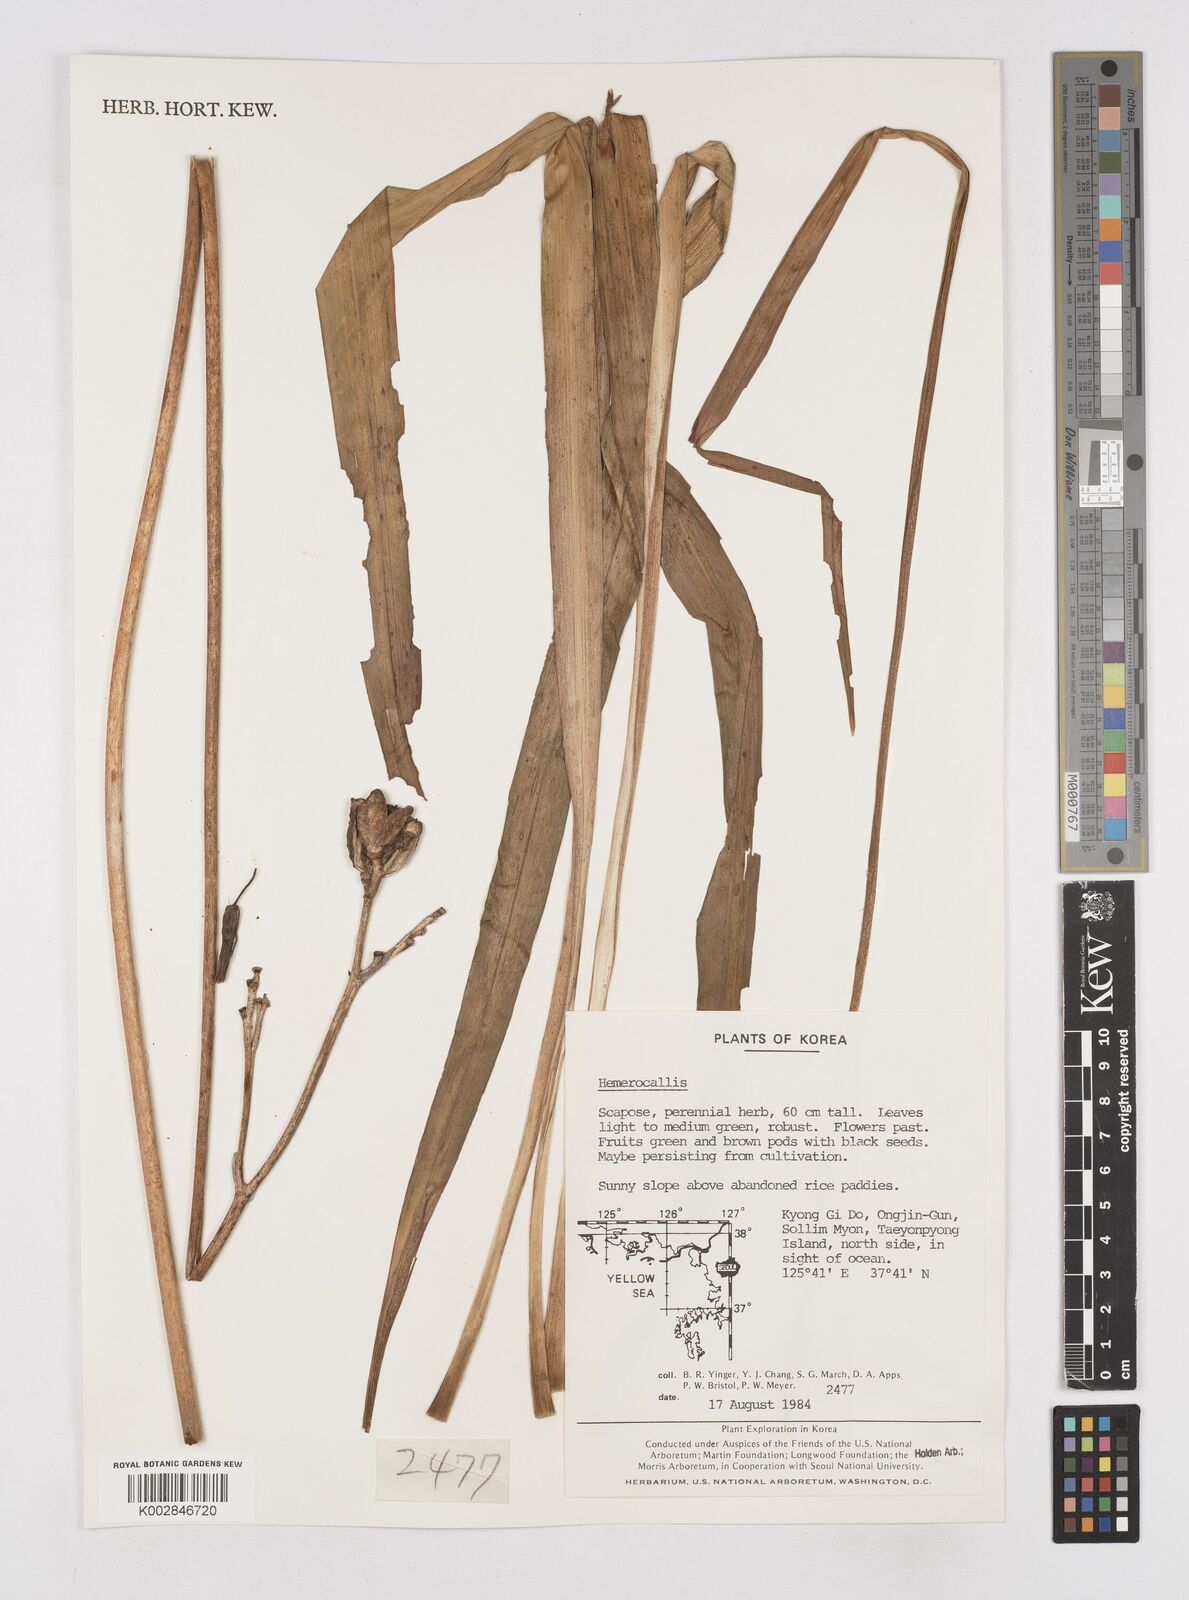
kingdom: Plantae
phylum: Tracheophyta
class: Liliopsida
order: Asparagales
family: Asphodelaceae
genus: Hemerocallis
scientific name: Hemerocallis
